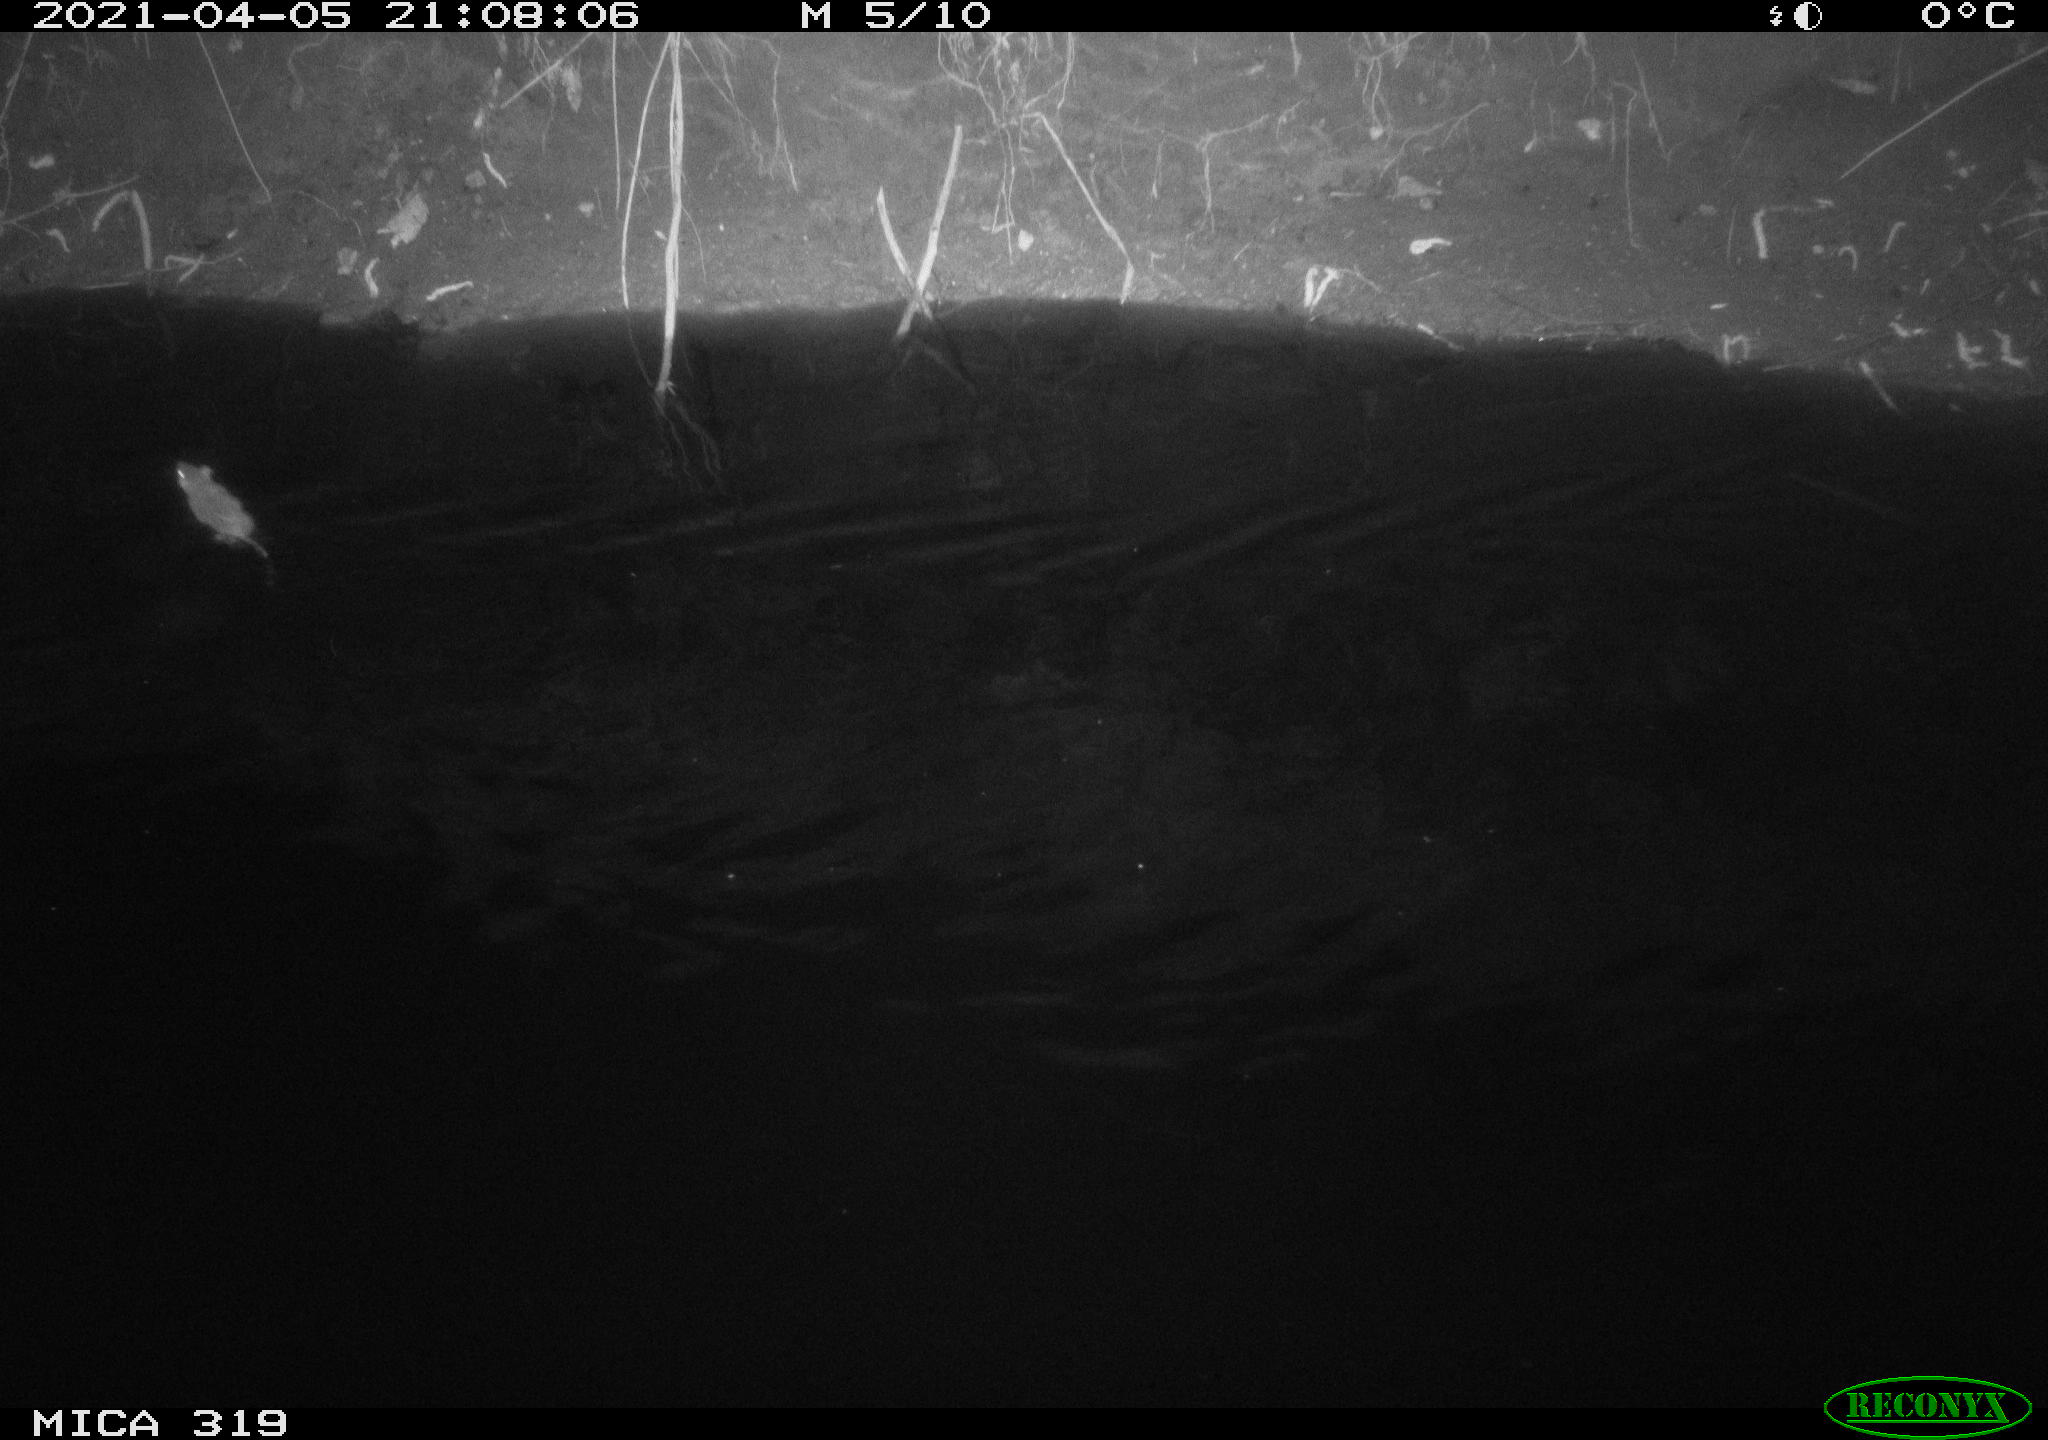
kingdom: Animalia
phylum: Chordata
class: Aves
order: Anseriformes
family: Anatidae
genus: Anas
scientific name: Anas platyrhynchos
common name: Mallard
